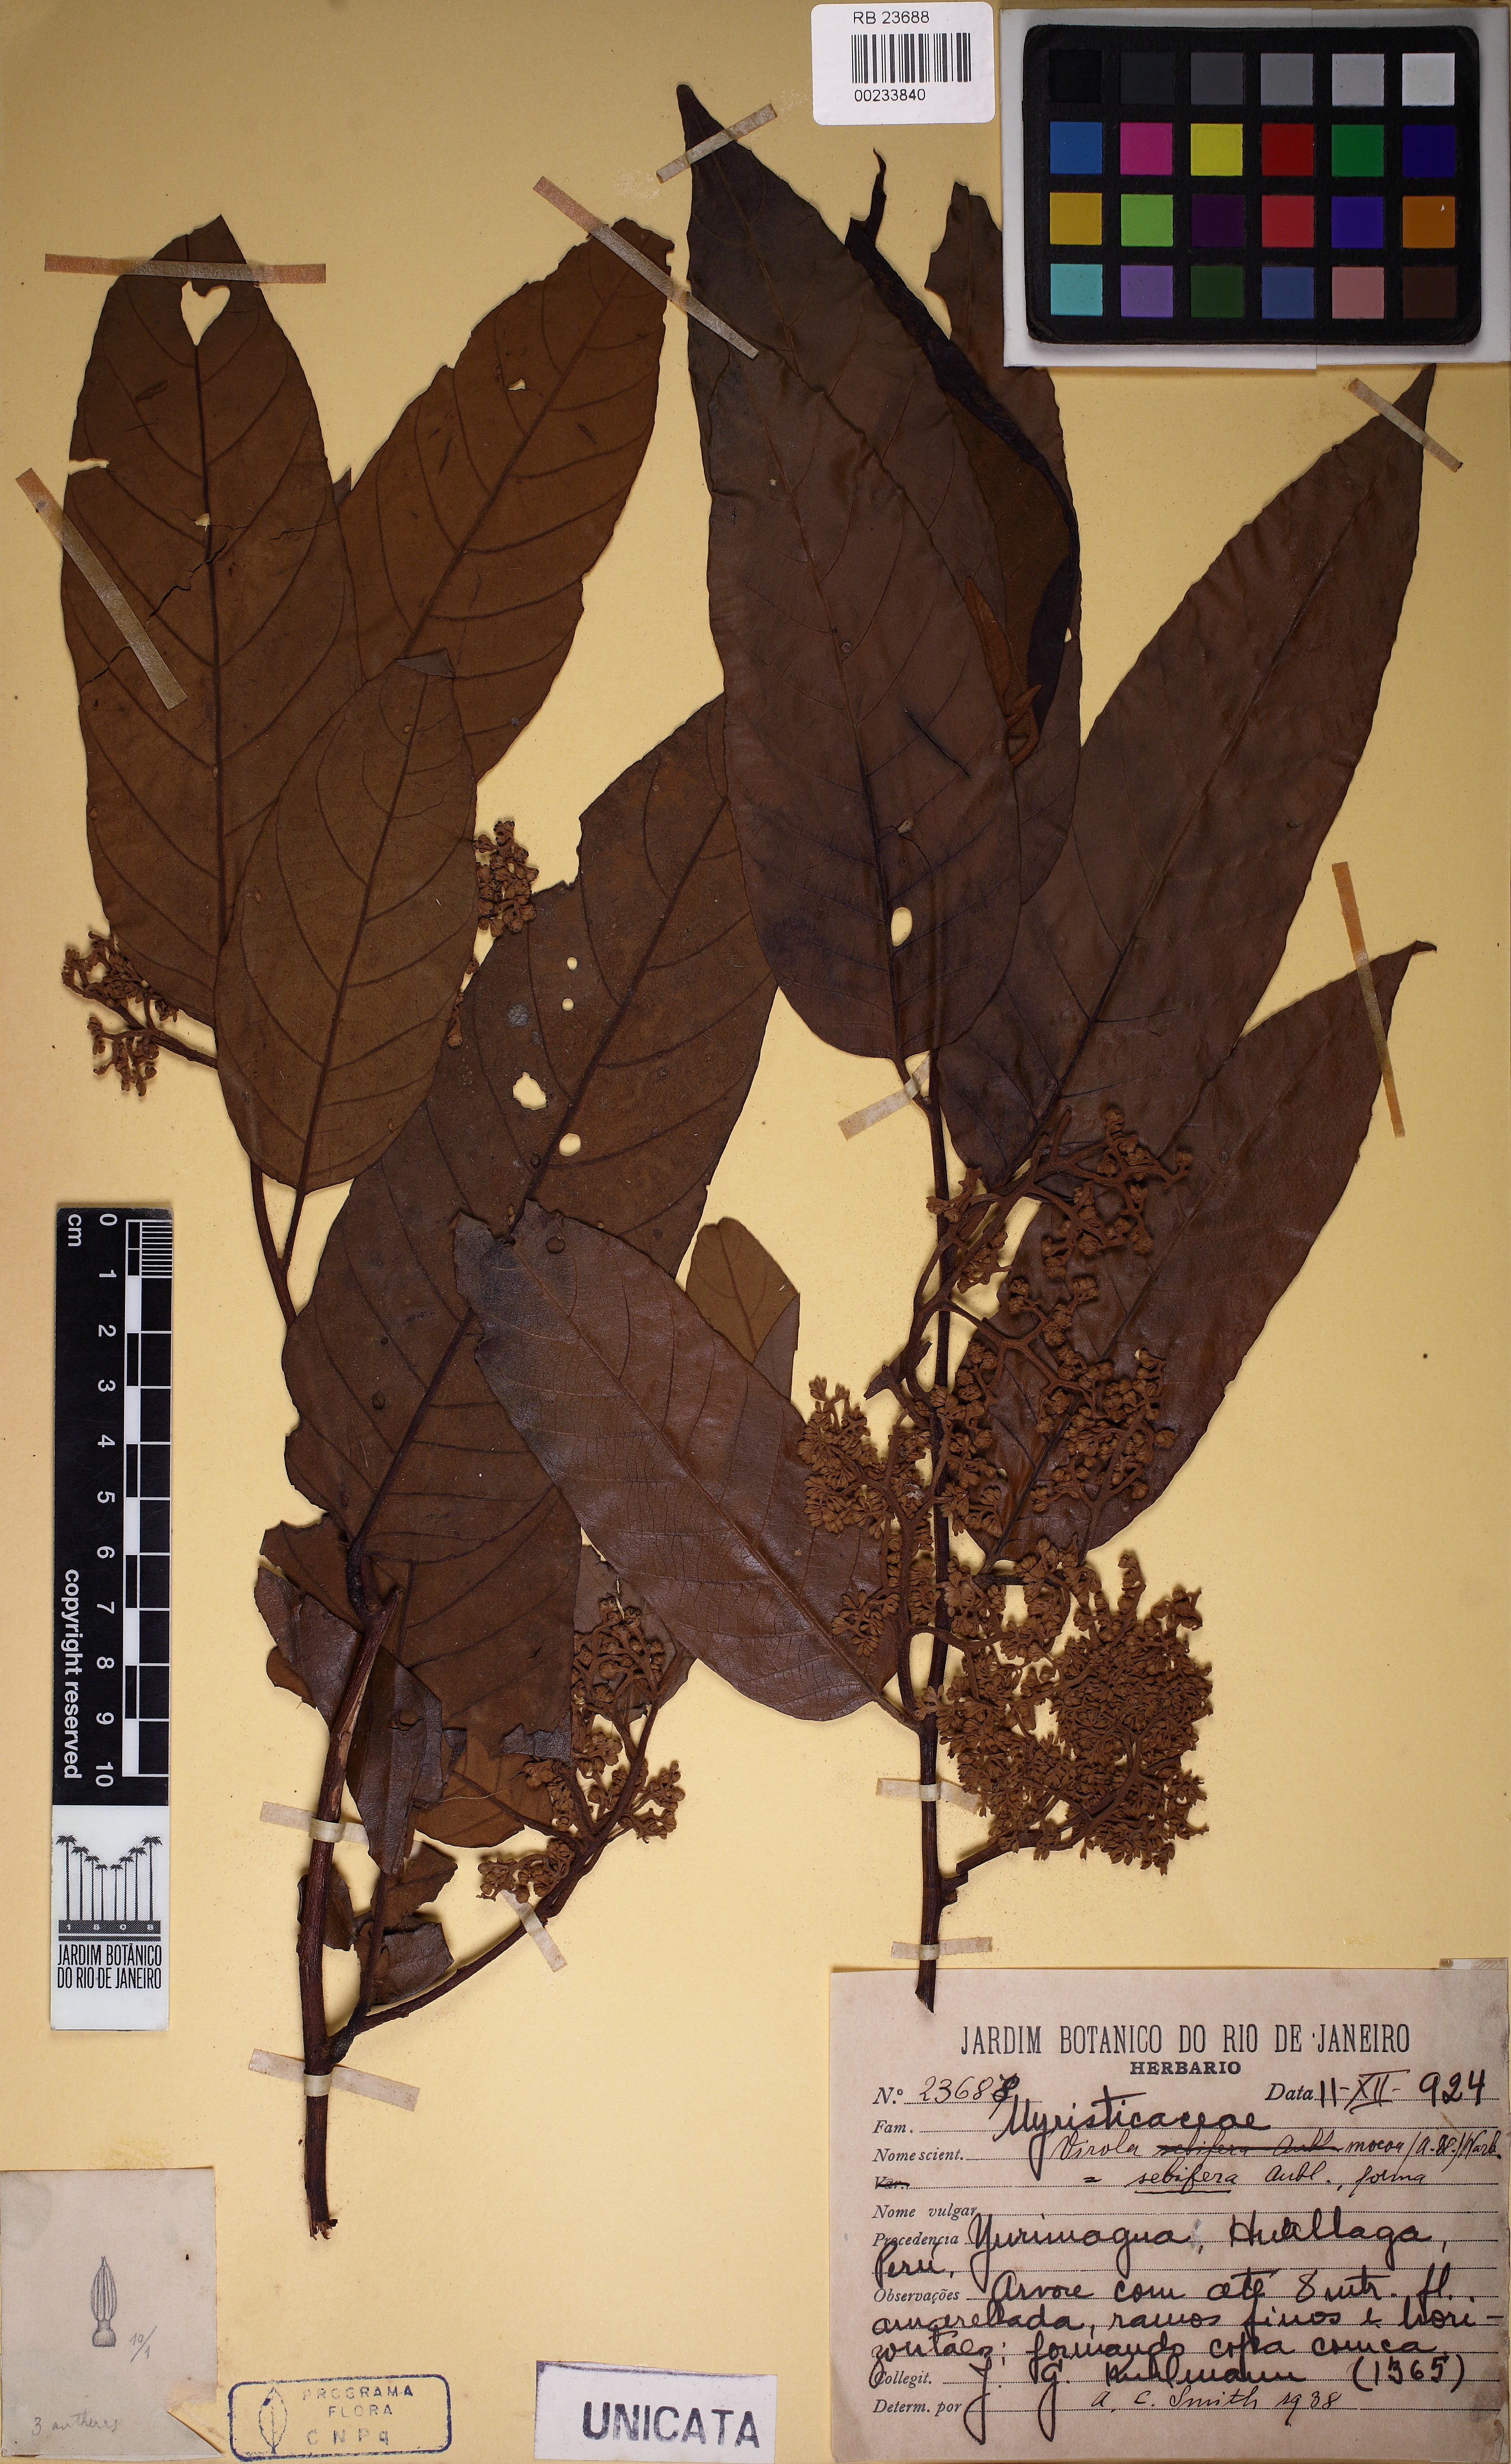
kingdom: Plantae
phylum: Tracheophyta
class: Magnoliopsida
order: Magnoliales
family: Myristicaceae
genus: Virola
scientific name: Virola sebifera
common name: Red ucuuba
